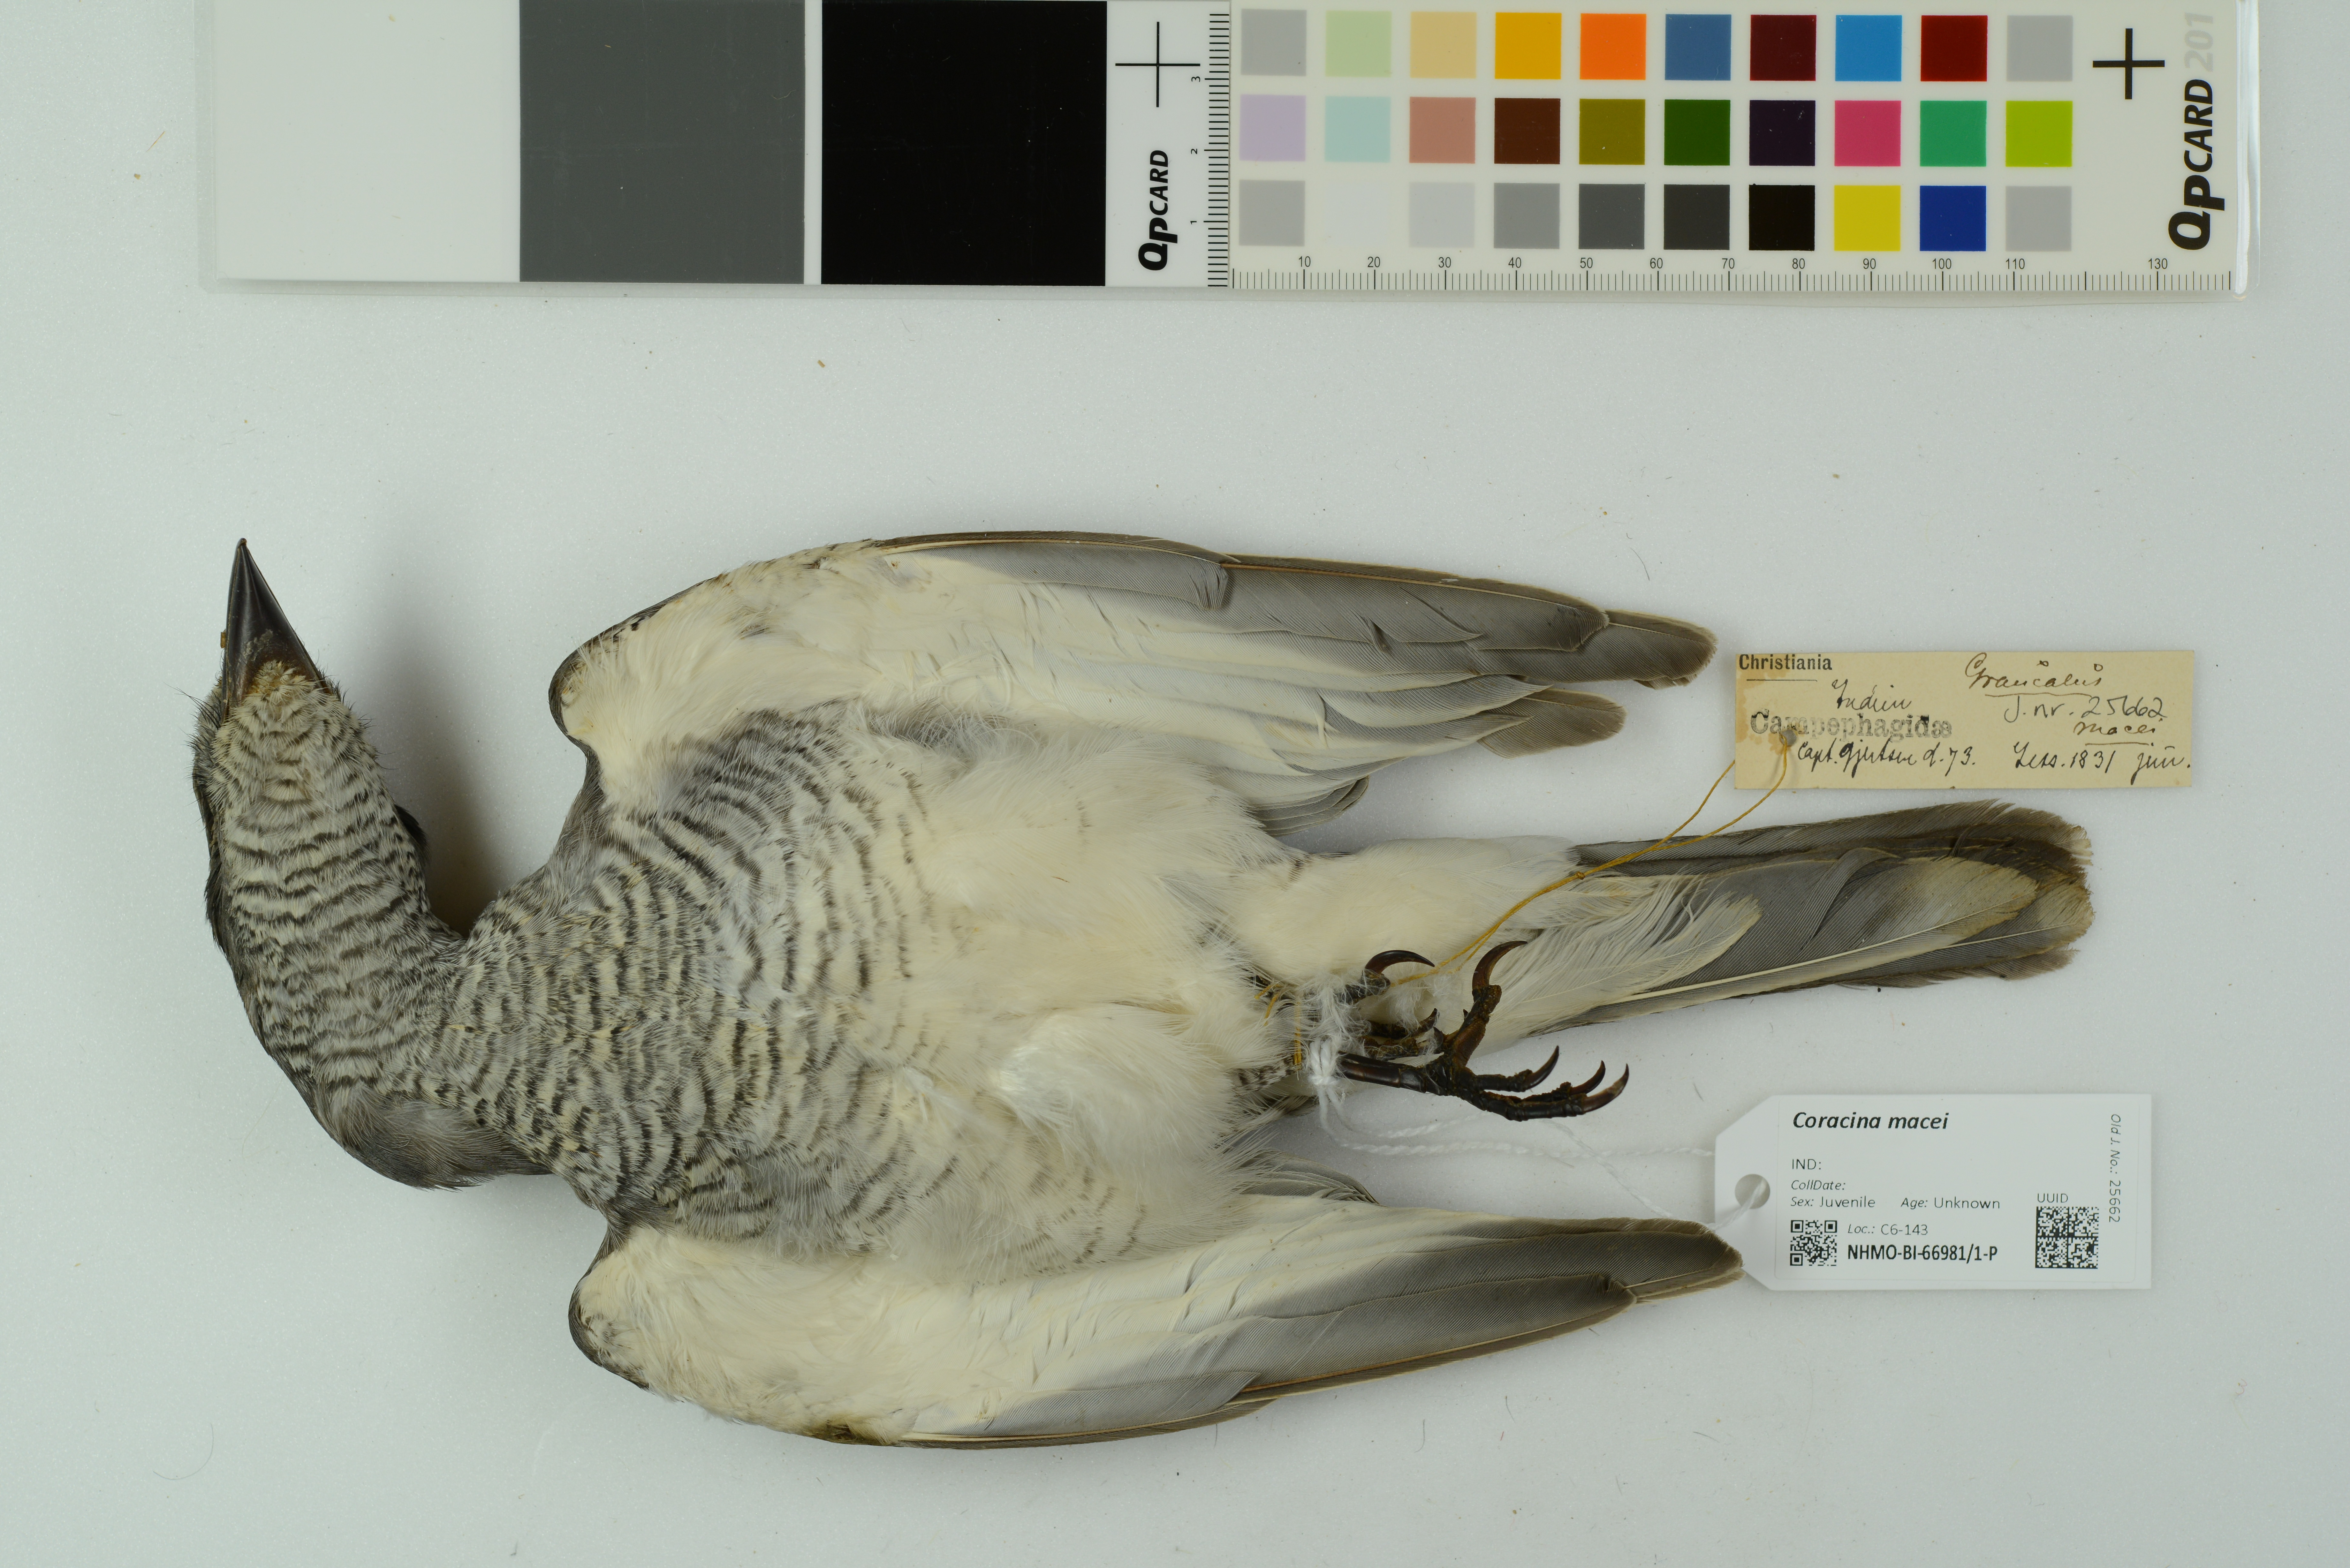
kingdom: Animalia
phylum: Chordata
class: Aves
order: Passeriformes
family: Campephagidae
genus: Coracina
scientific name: Coracina macei
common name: Large cuckooshrike
